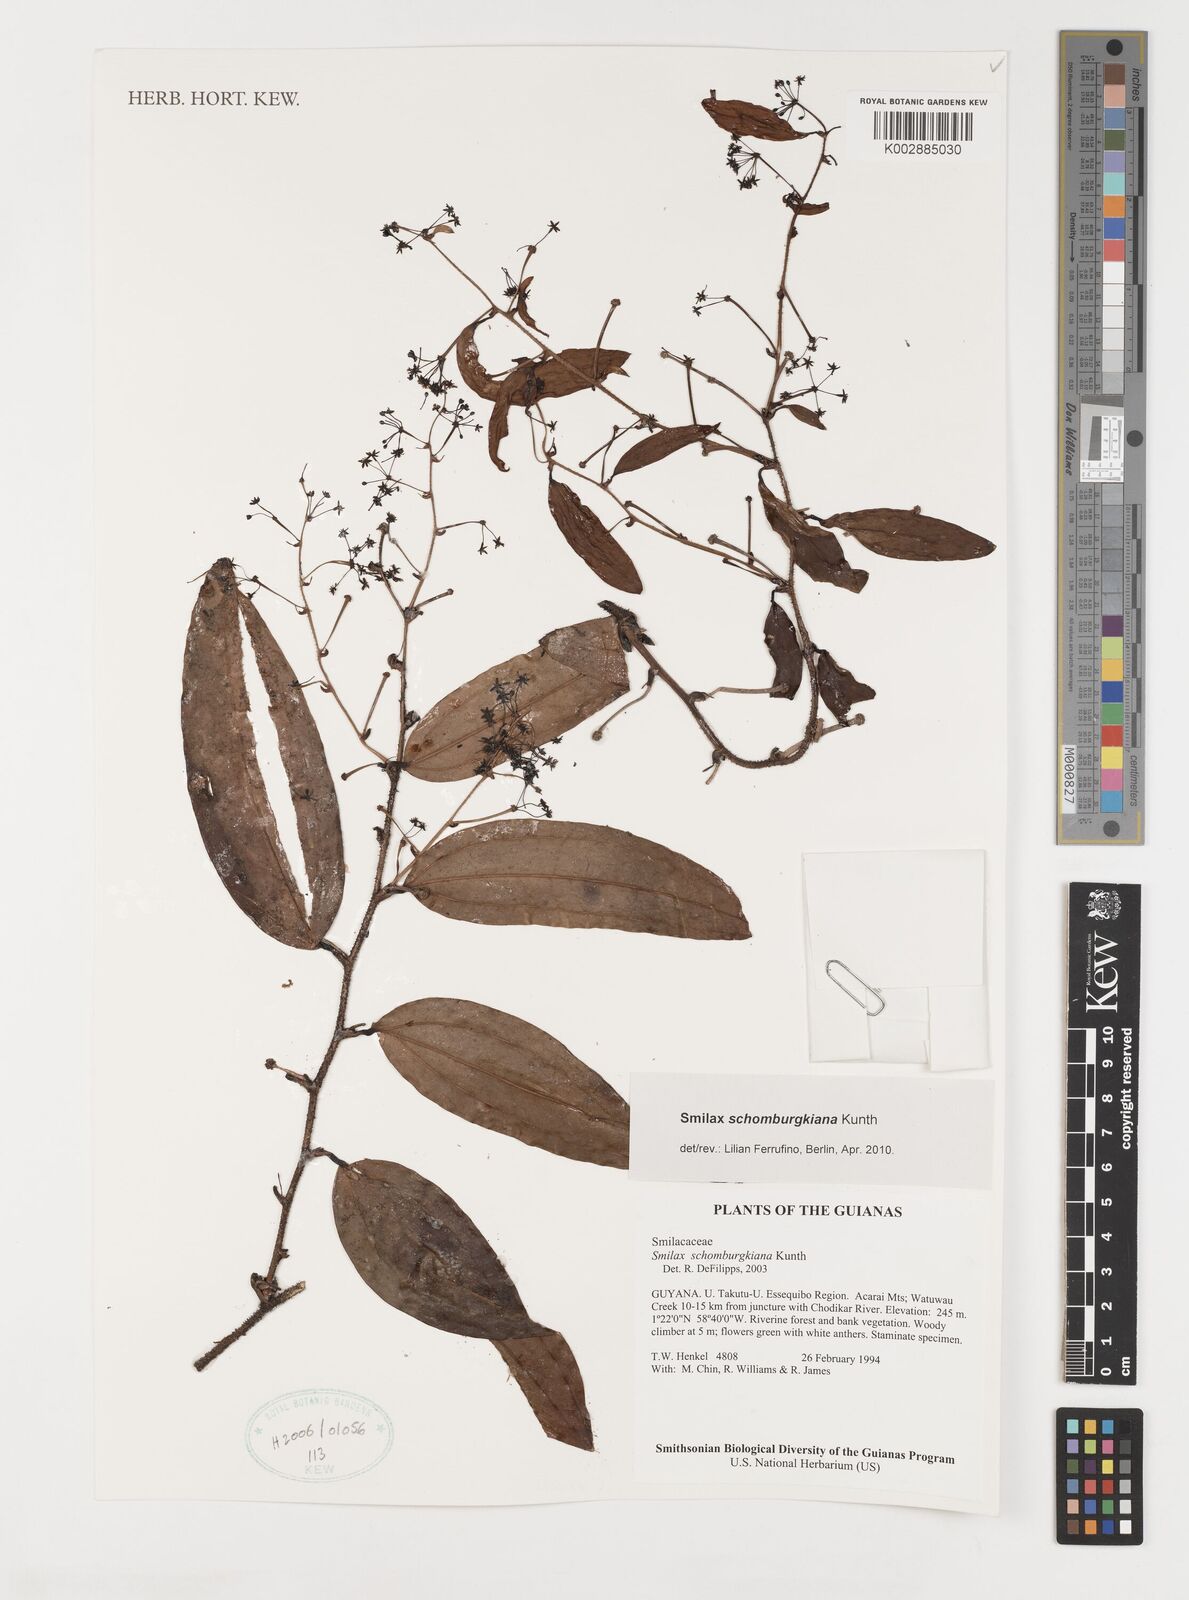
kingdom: Plantae
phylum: Tracheophyta
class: Liliopsida
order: Liliales
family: Smilacaceae
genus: Smilax
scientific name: Smilax schomburgkiana
